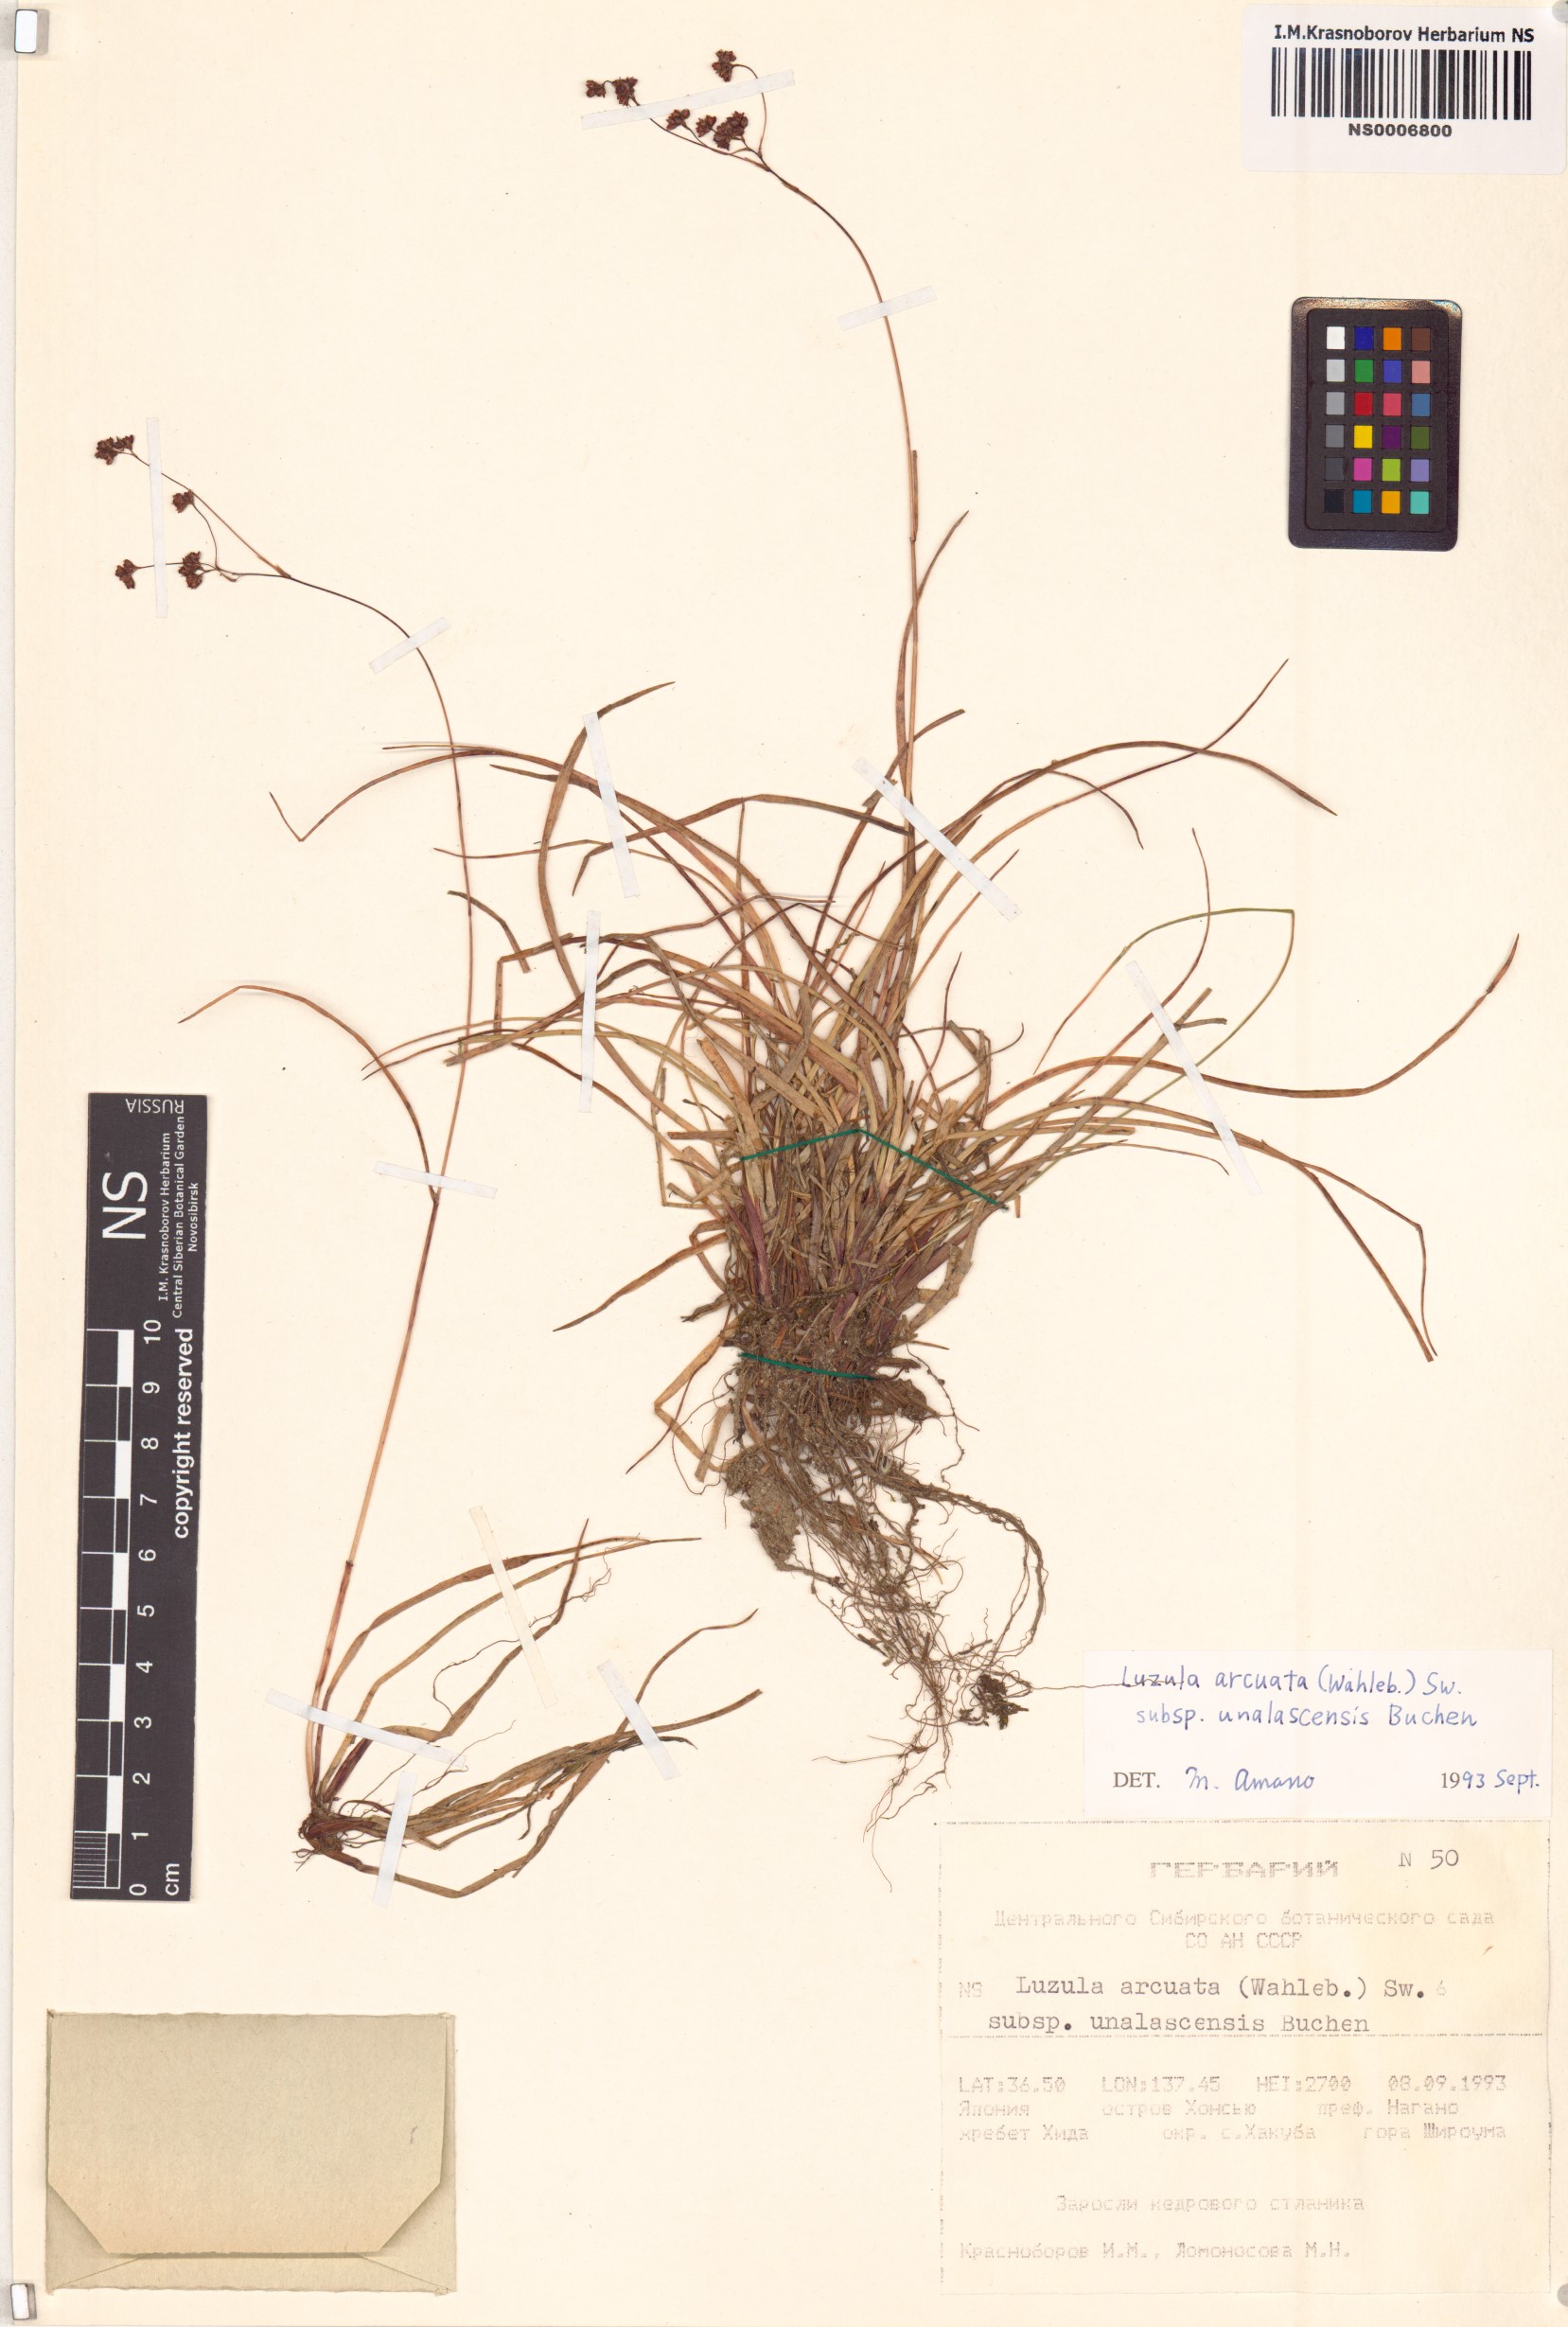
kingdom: Plantae
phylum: Tracheophyta
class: Liliopsida
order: Poales
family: Juncaceae
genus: Luzula
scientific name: Luzula arcuata
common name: Curved wood-rush
